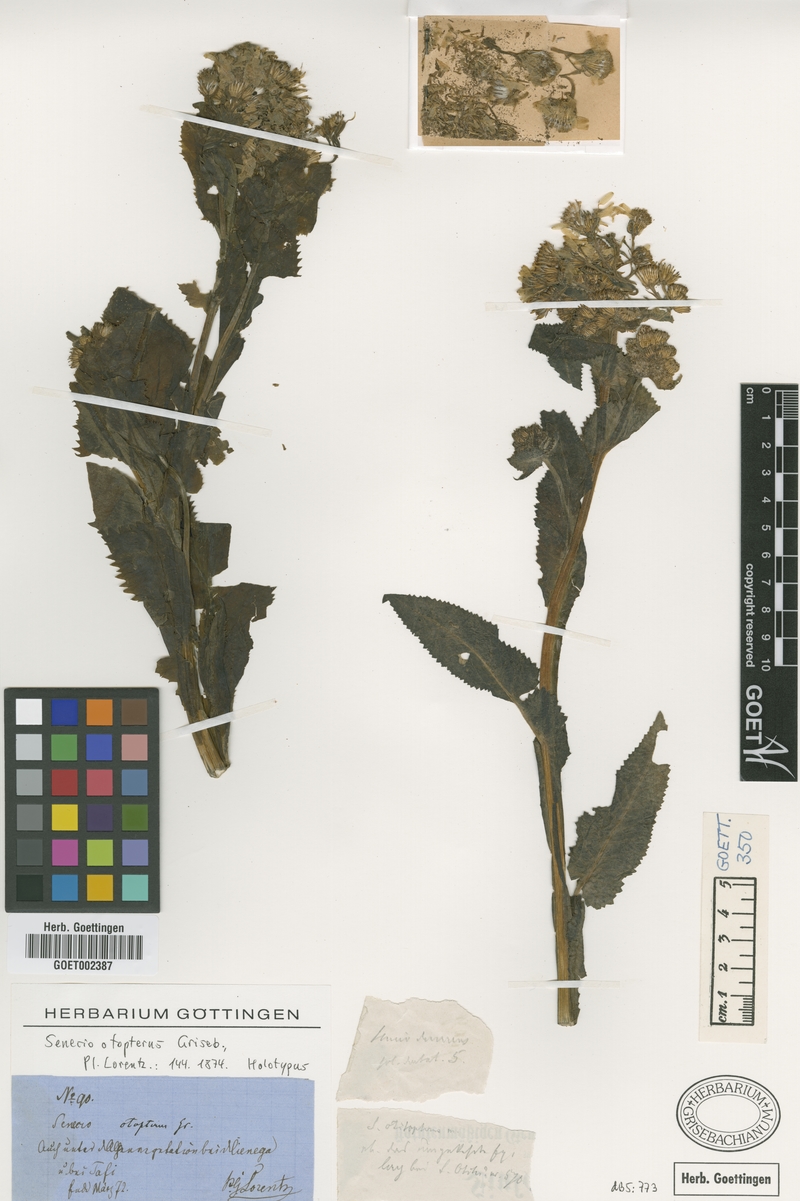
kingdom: Plantae
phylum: Tracheophyta
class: Magnoliopsida
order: Asterales
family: Asteraceae
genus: Senecio
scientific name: Senecio otopterus
